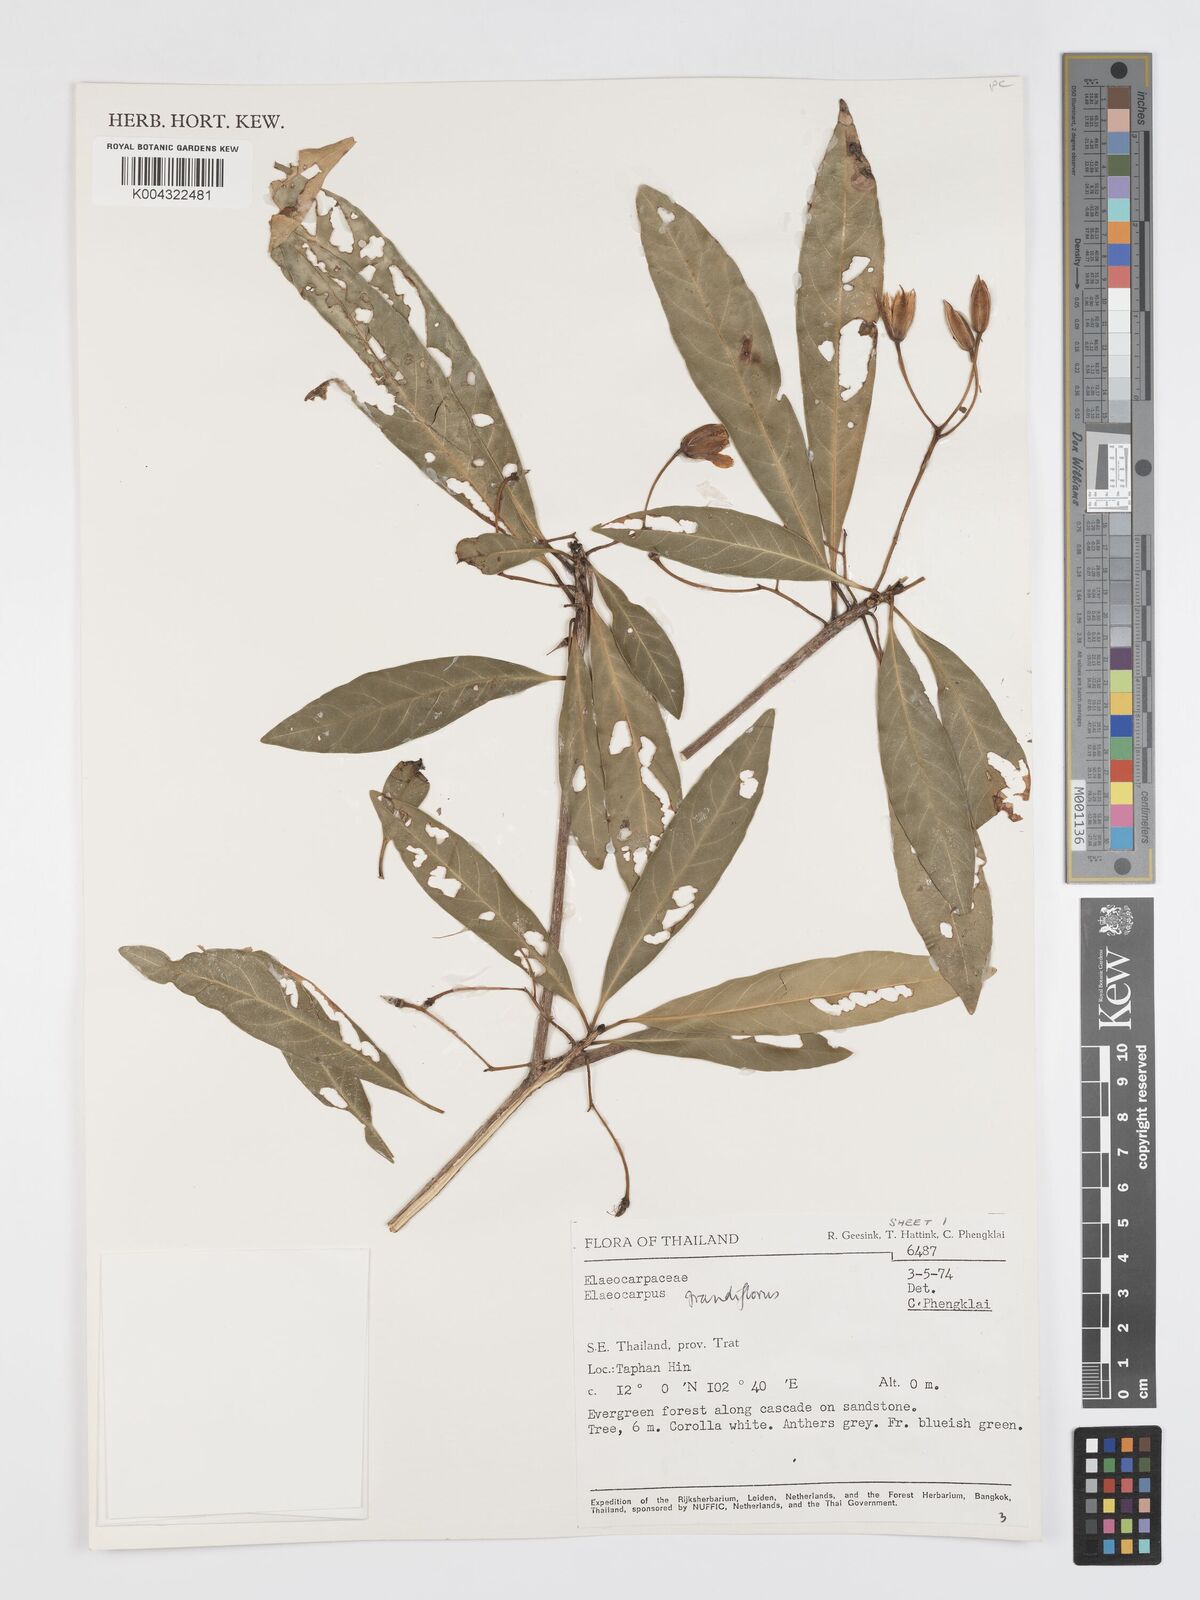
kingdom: Plantae
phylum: Tracheophyta
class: Magnoliopsida
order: Oxalidales
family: Elaeocarpaceae
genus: Elaeocarpus
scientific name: Elaeocarpus grandiflorus
